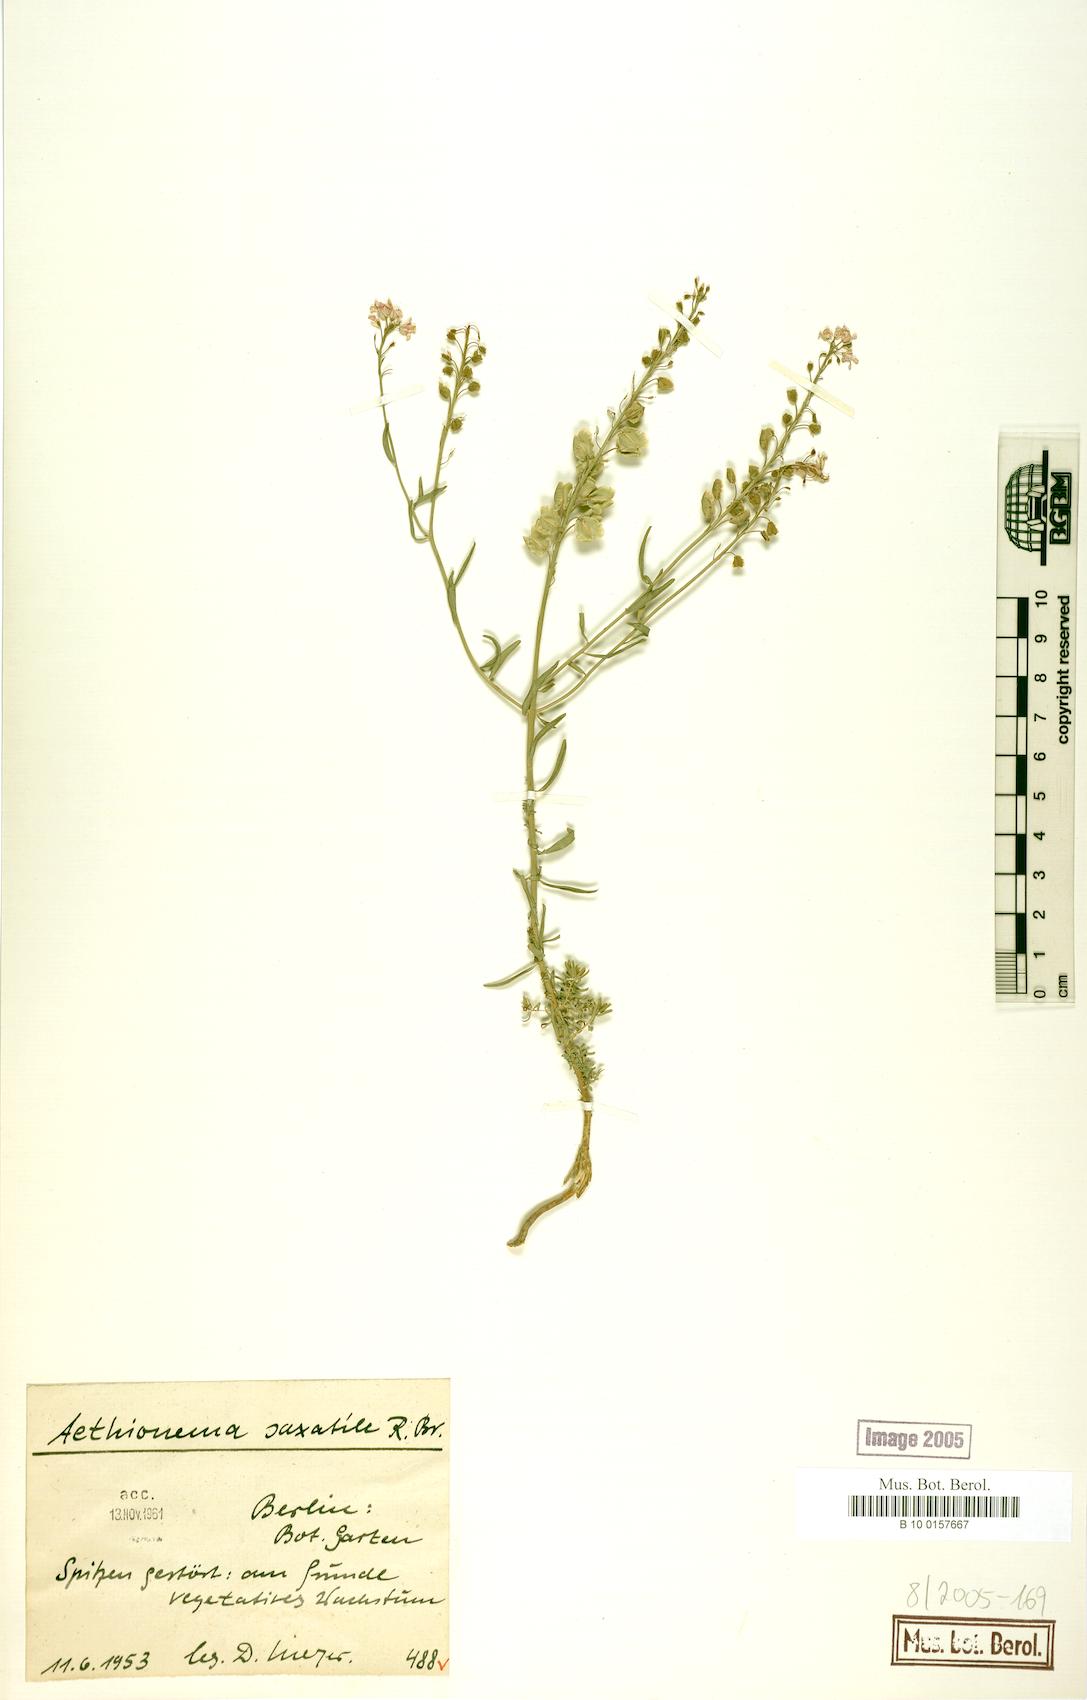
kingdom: Plantae
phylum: Tracheophyta
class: Magnoliopsida
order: Brassicales
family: Brassicaceae
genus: Aethionema
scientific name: Aethionema saxatile
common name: Burnt candytuft
